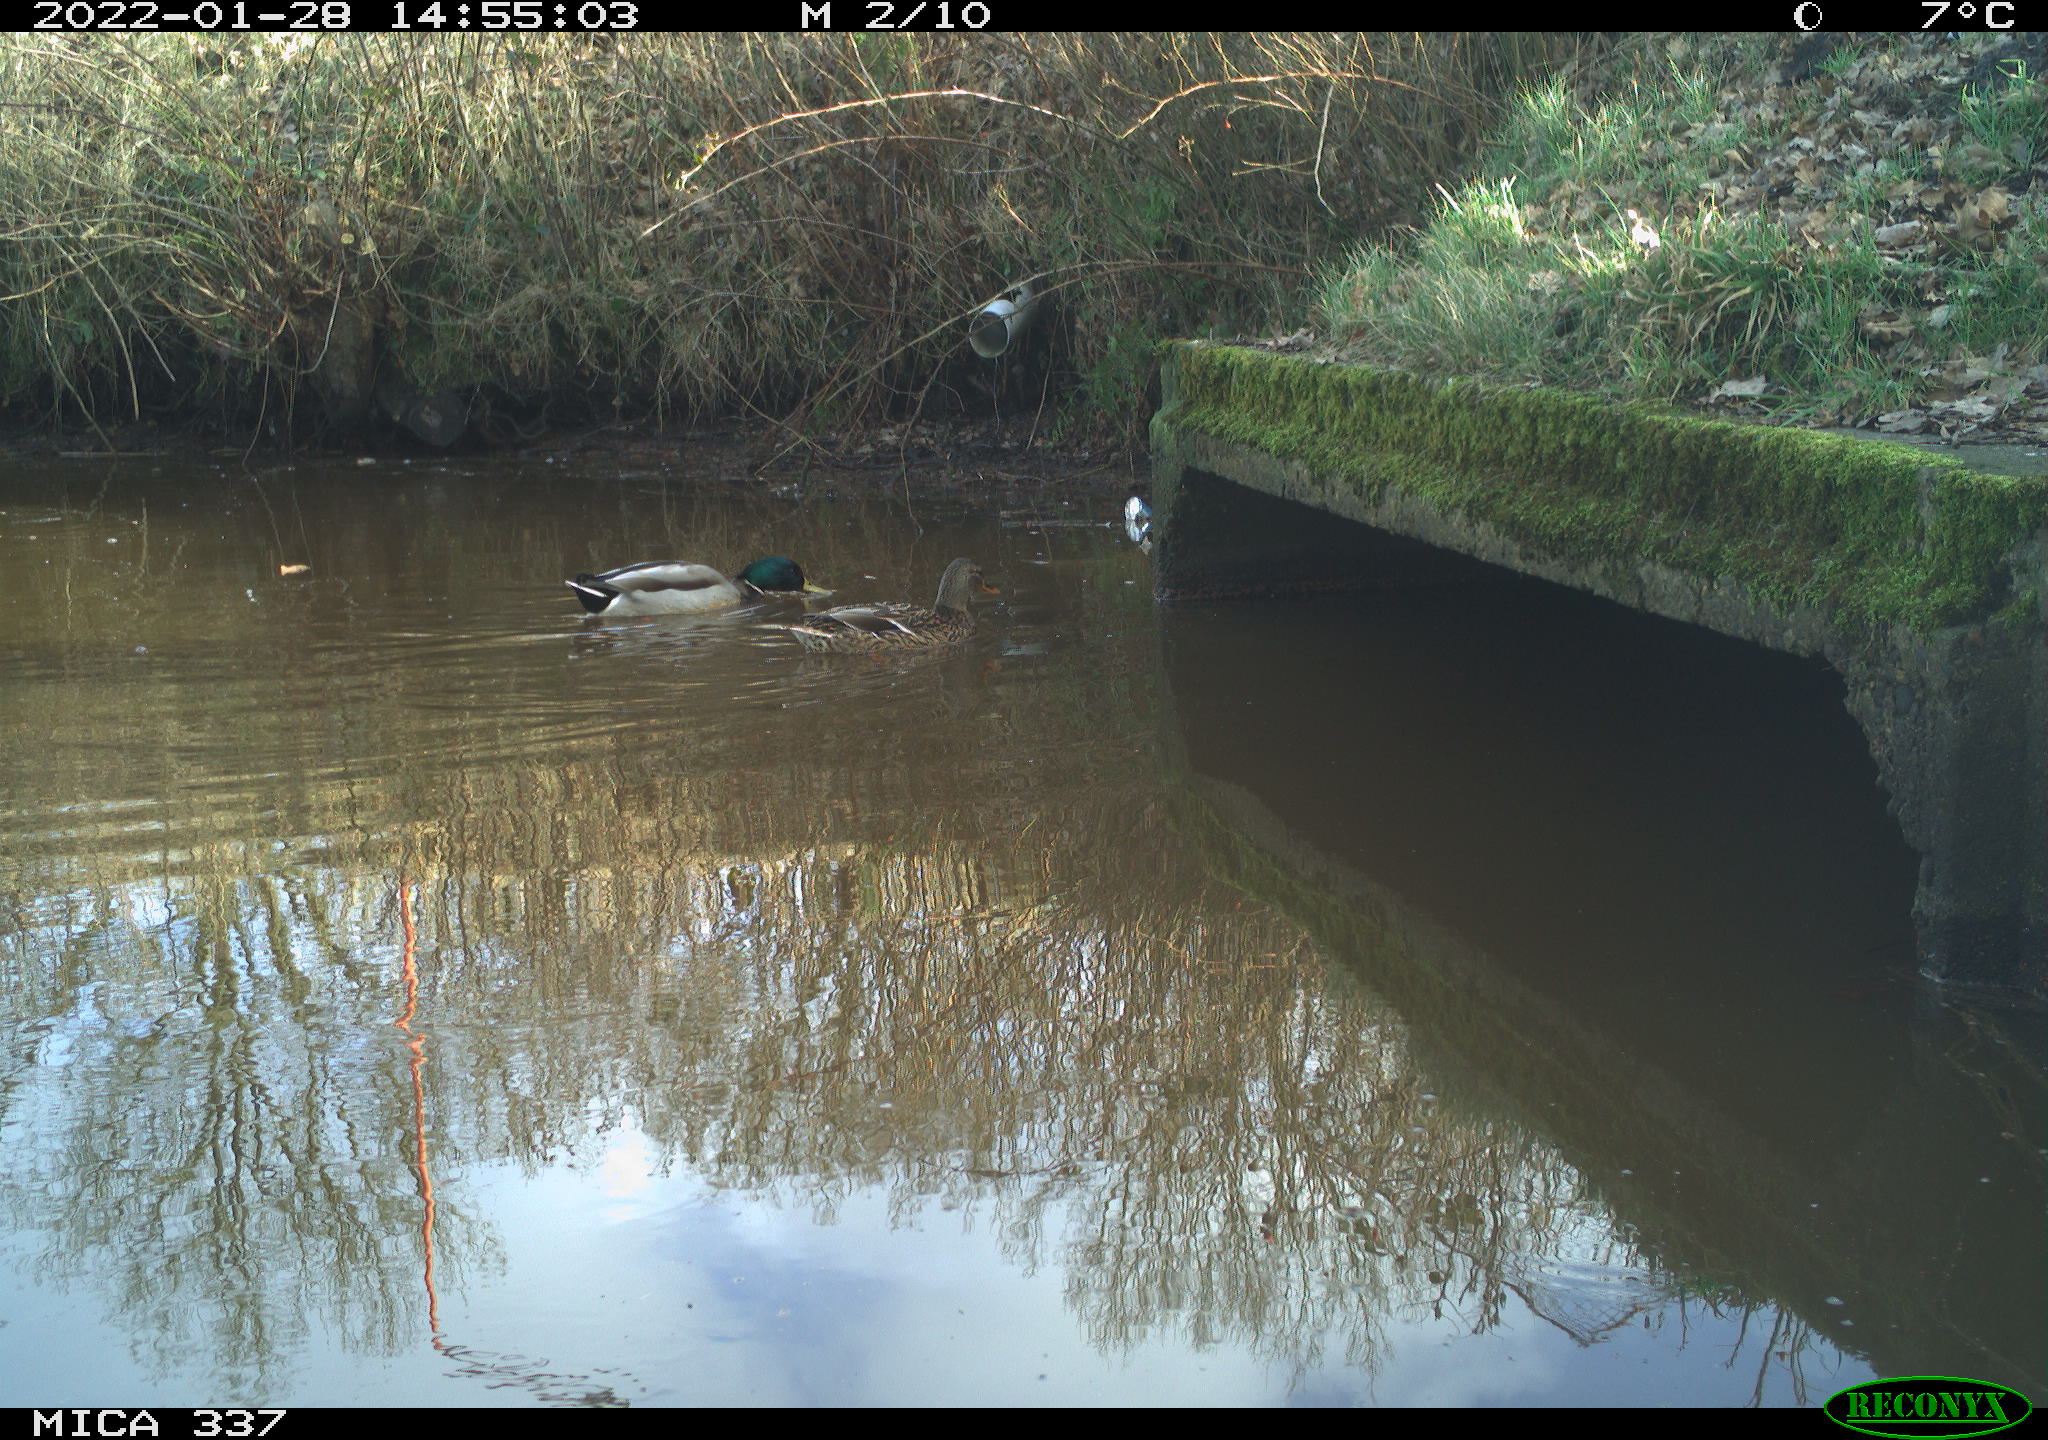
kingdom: Animalia
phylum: Chordata
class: Aves
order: Anseriformes
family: Anatidae
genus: Anas
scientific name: Anas platyrhynchos
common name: Mallard
